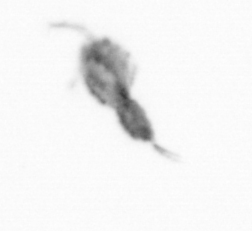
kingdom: Animalia
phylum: Arthropoda
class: Copepoda
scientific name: Copepoda
